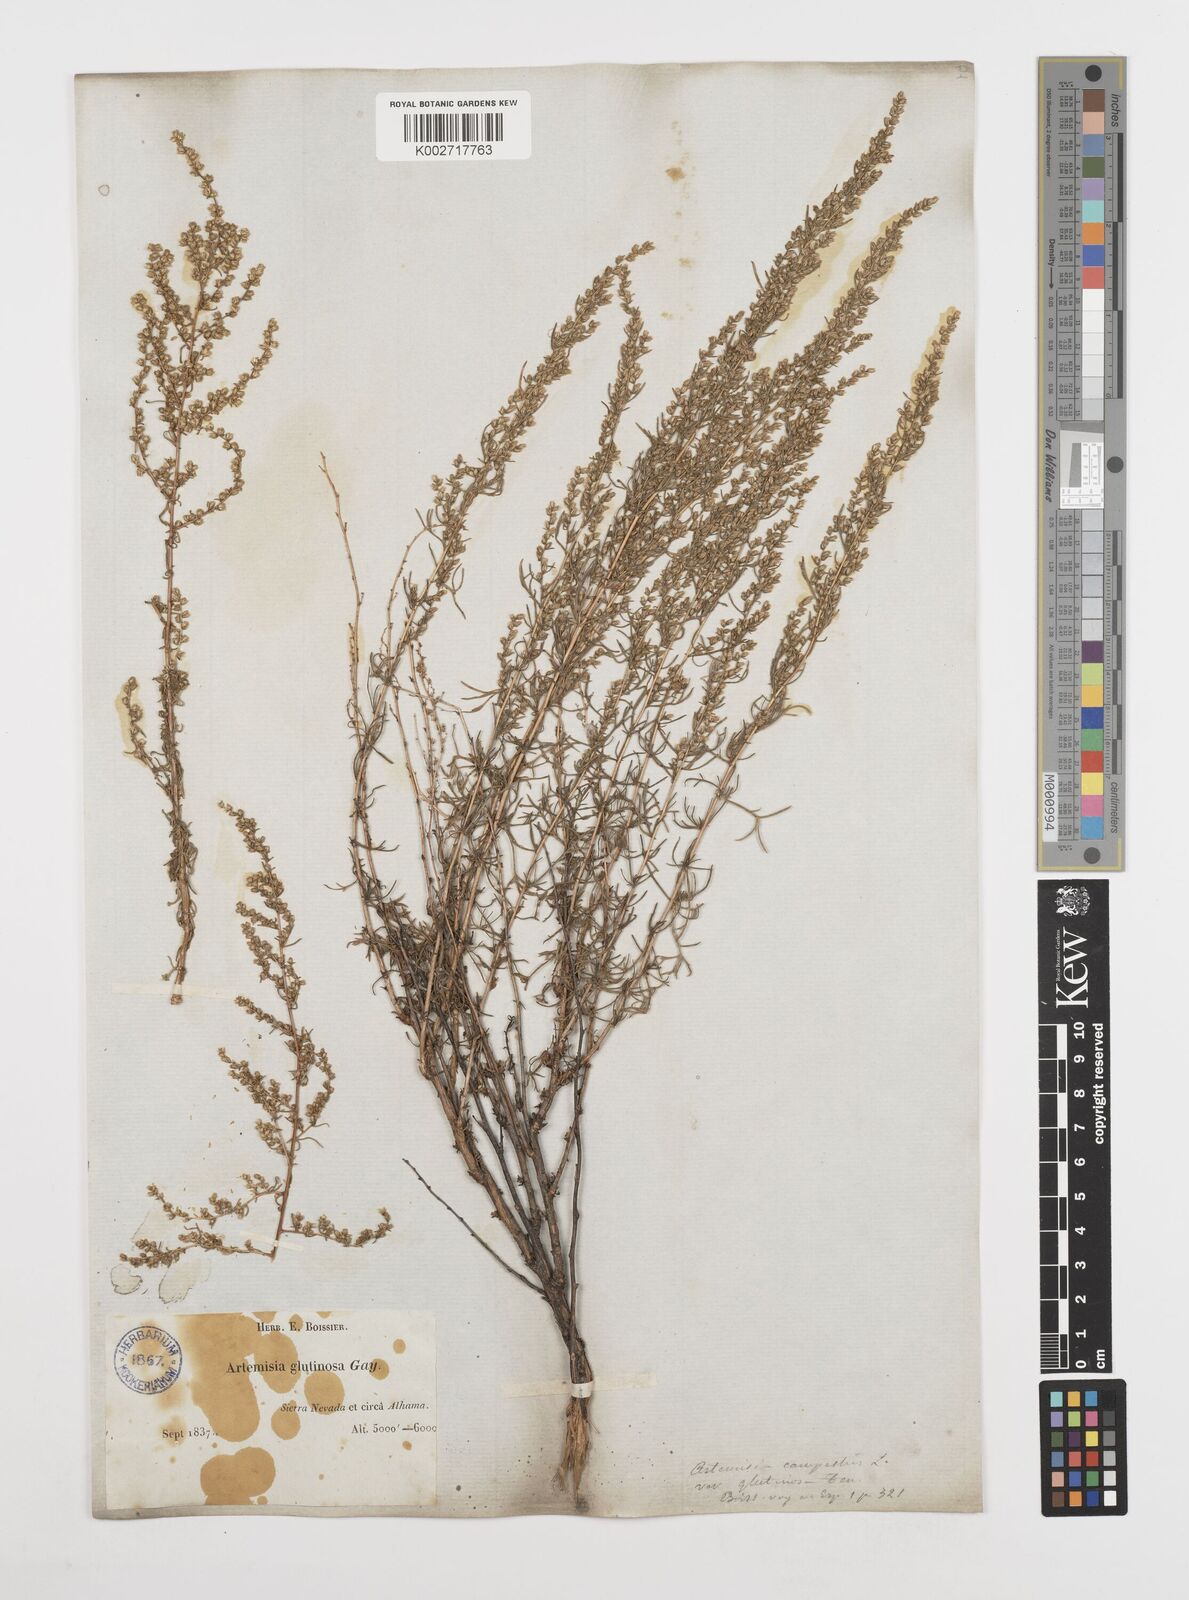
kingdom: Plantae
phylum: Tracheophyta
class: Magnoliopsida
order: Asterales
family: Asteraceae
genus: Artemisia
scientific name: Artemisia campestris
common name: Field wormwood
